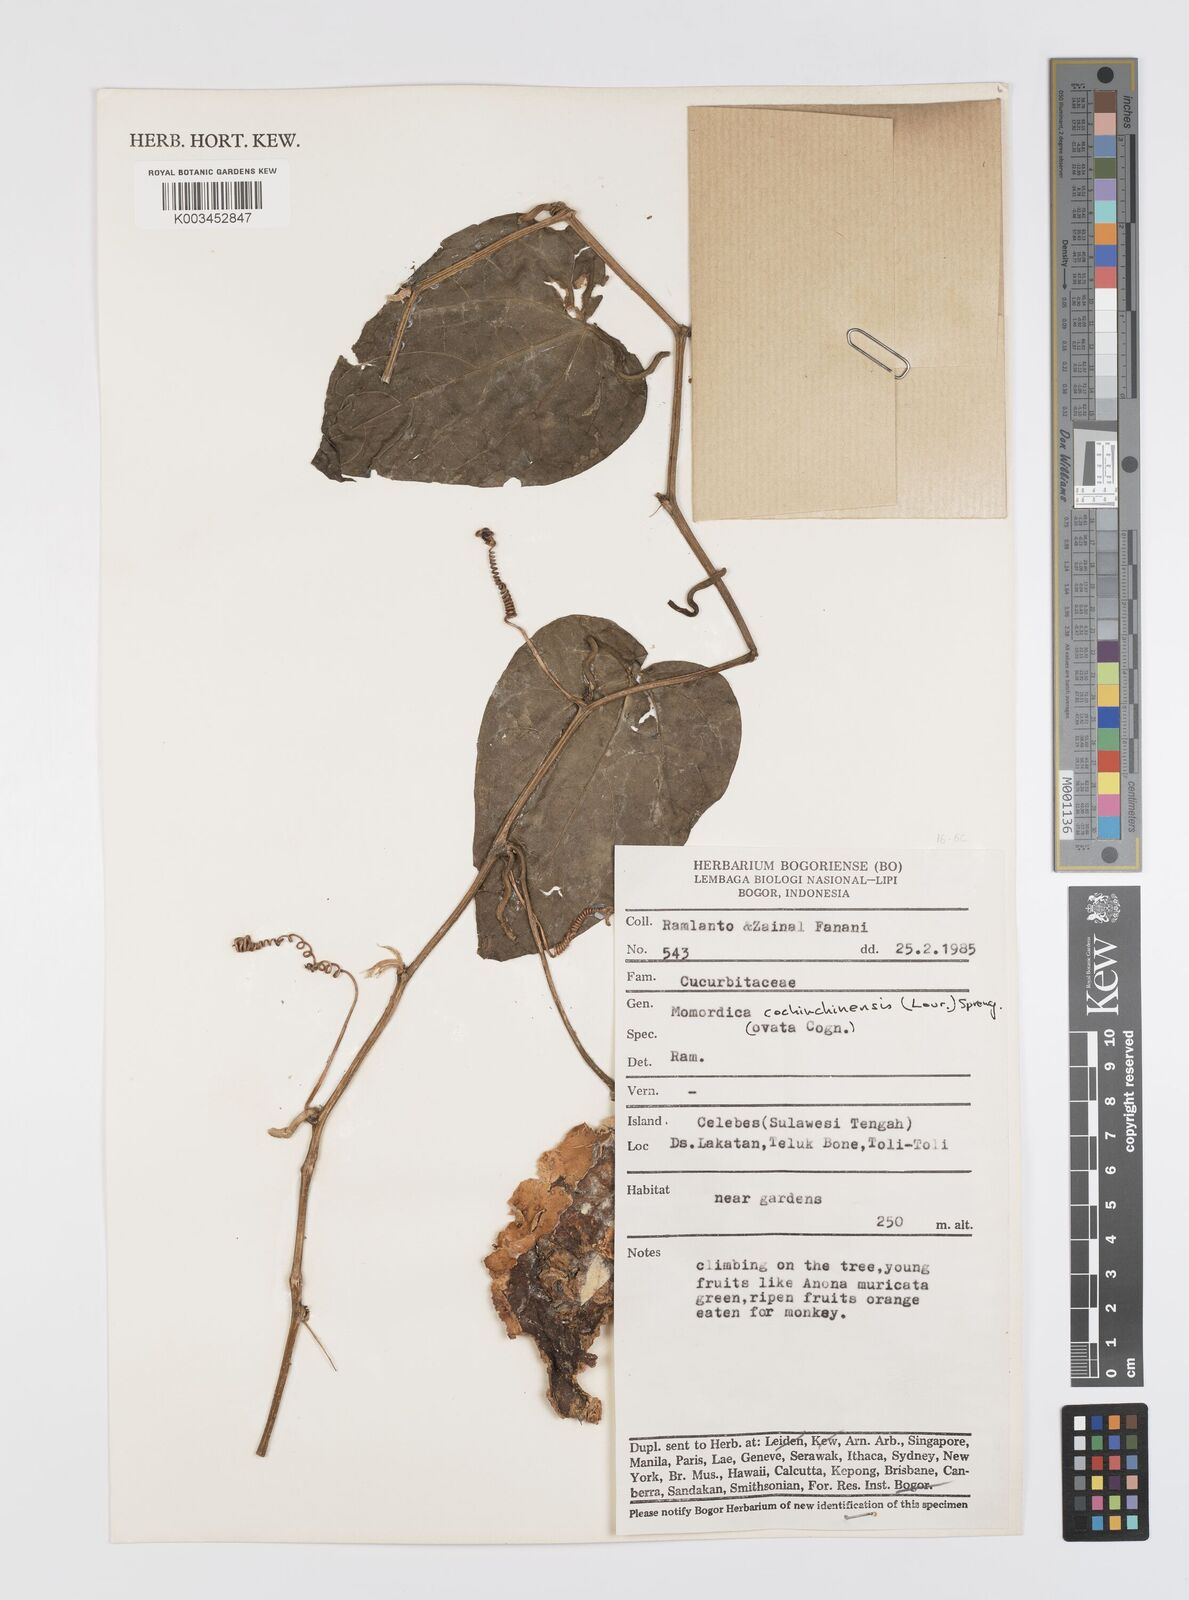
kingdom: Plantae
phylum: Tracheophyta
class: Magnoliopsida
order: Cucurbitales
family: Cucurbitaceae
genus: Momordica
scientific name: Momordica cochinchinensis
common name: Chinese bitter-cucumber
